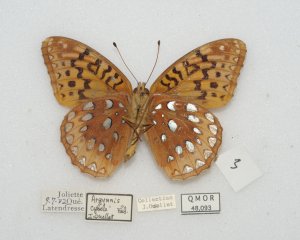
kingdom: Animalia
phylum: Arthropoda
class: Insecta
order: Lepidoptera
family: Nymphalidae
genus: Speyeria
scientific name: Speyeria cybele
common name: Great Spangled Fritillary
